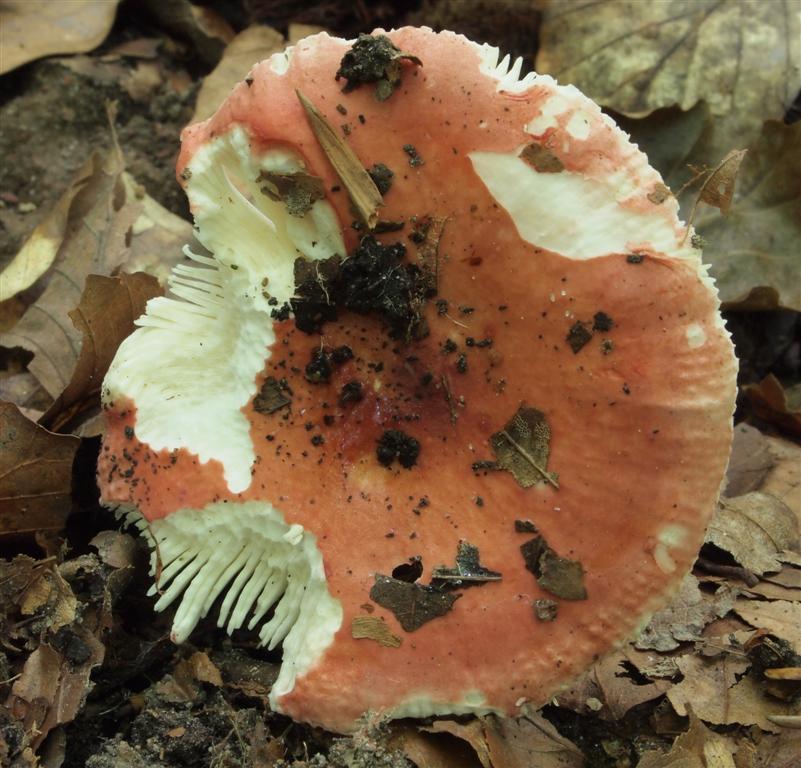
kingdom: Fungi
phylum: Basidiomycota
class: Agaricomycetes
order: Russulales
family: Russulaceae
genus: Russula
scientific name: Russula aurora
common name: rosa skørhat
